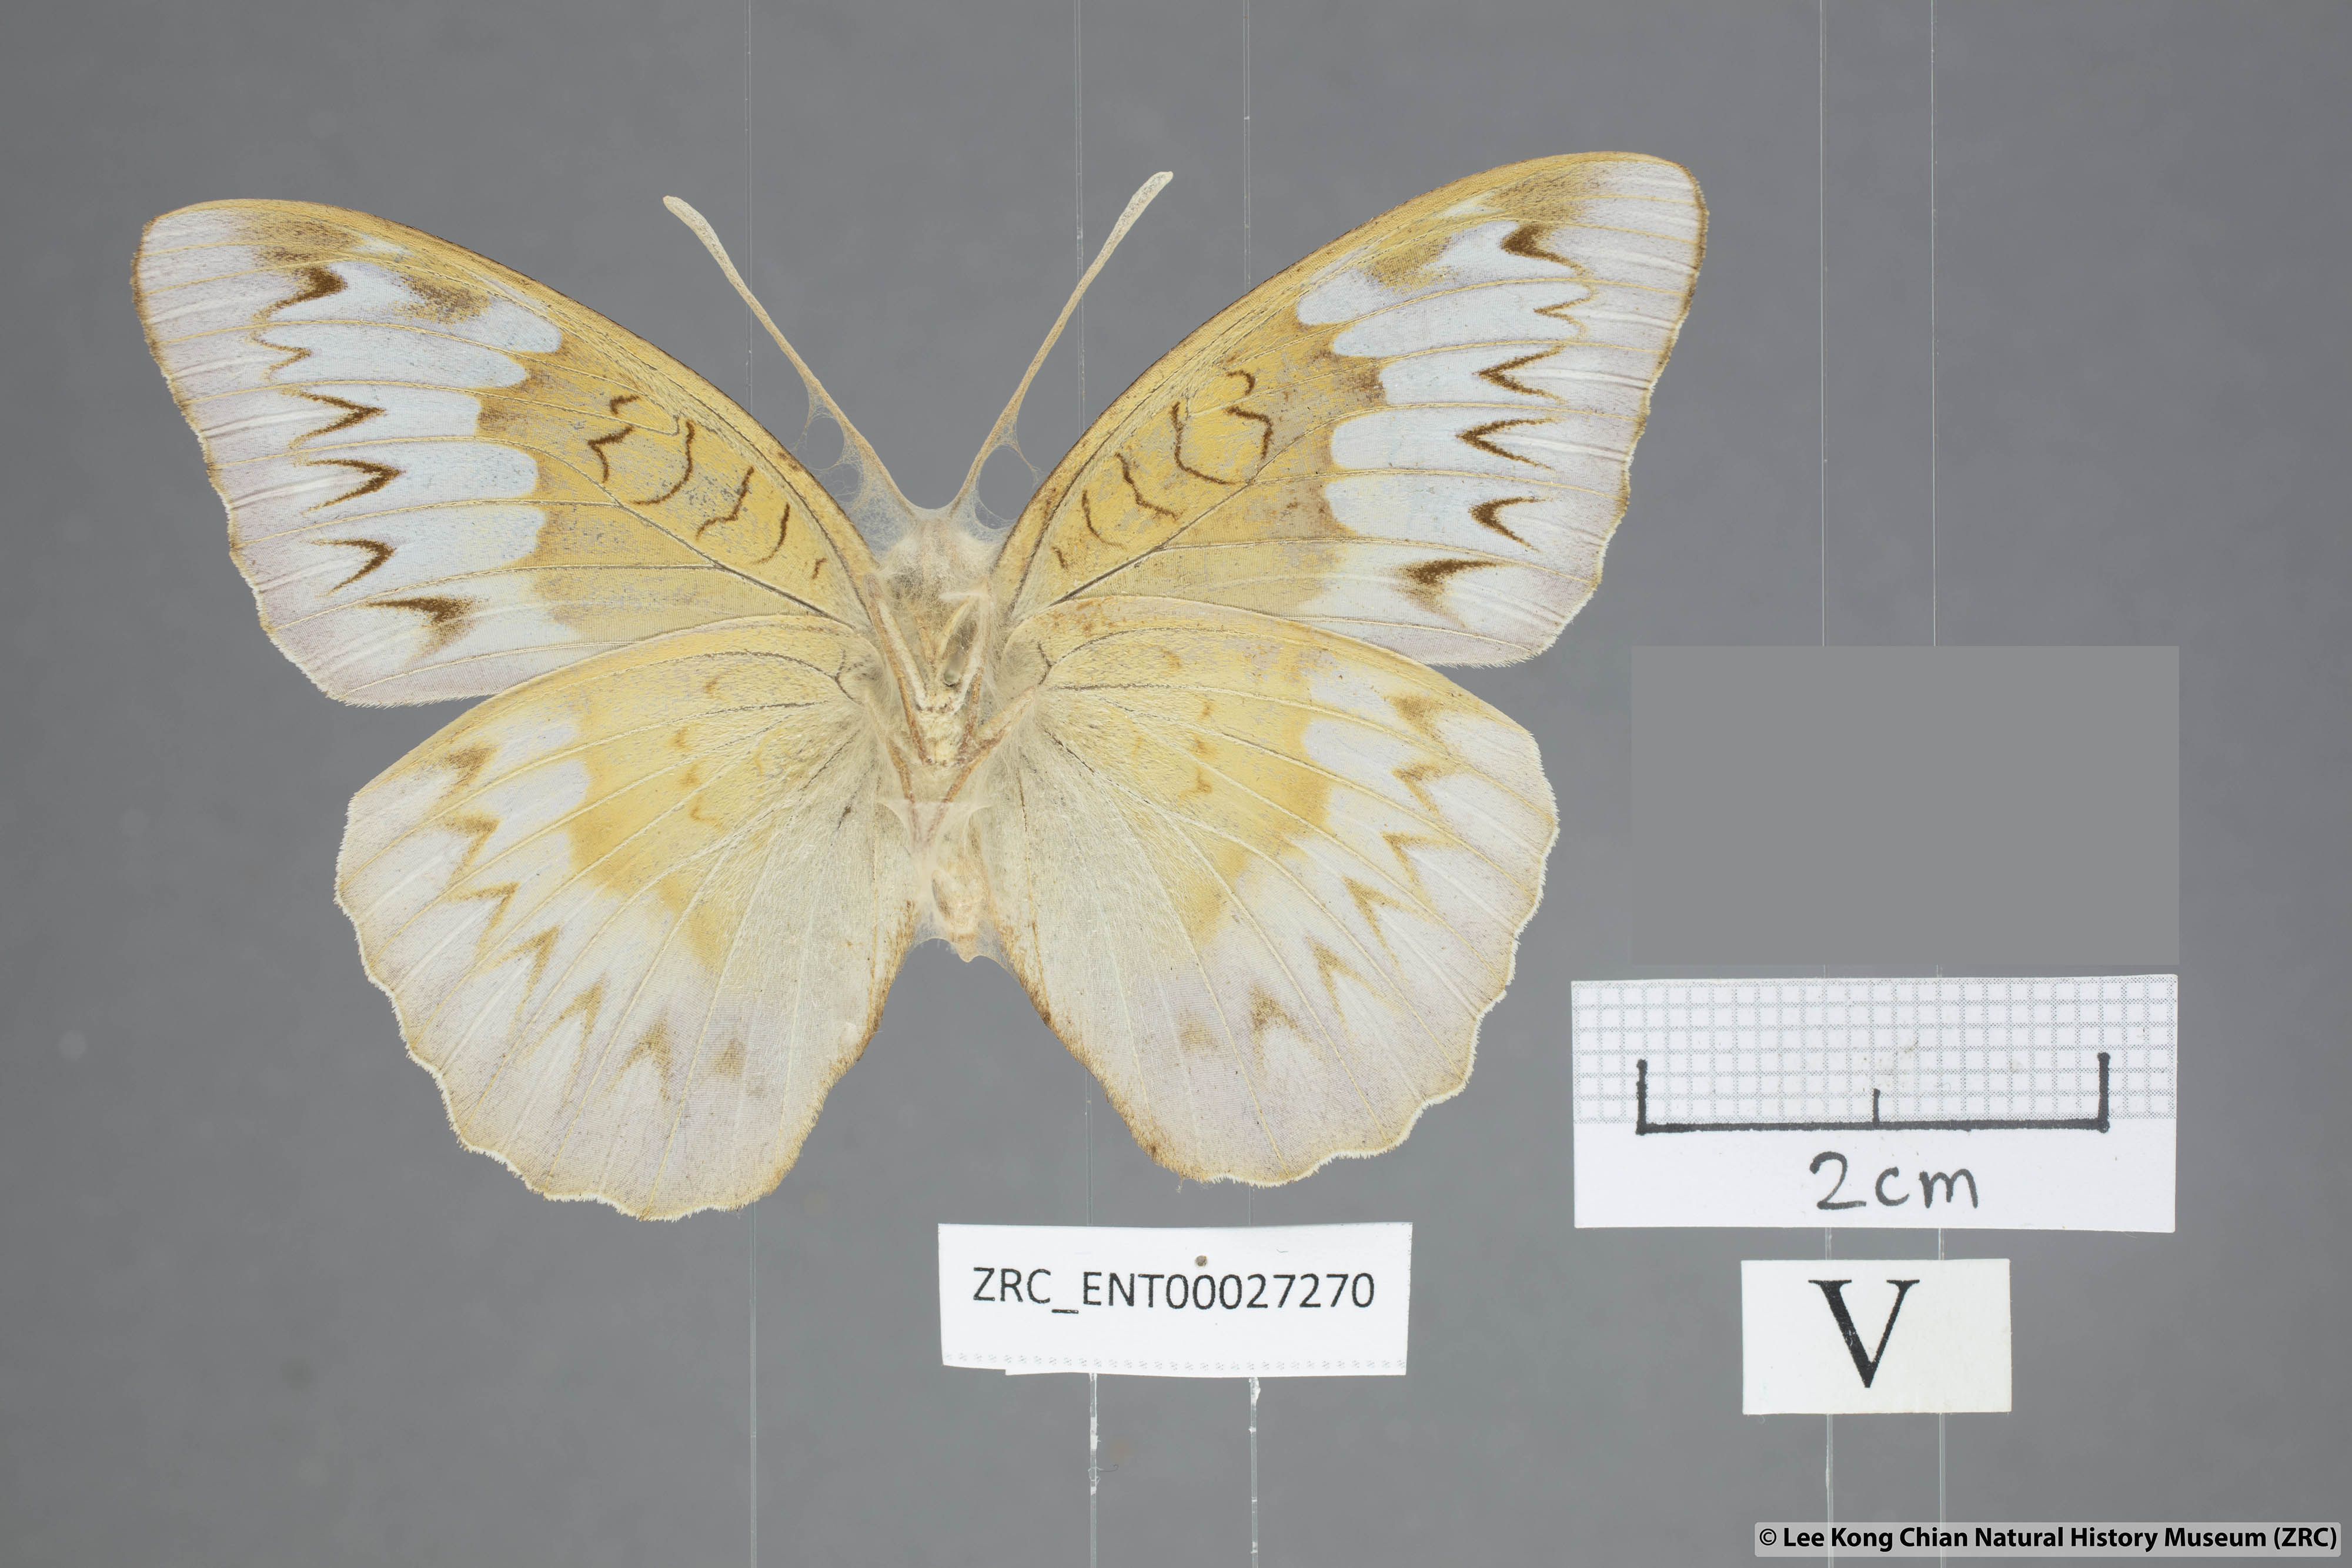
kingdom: Animalia
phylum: Arthropoda
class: Insecta
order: Lepidoptera
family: Nymphalidae
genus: Tanaecia
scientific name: Tanaecia coelebs
